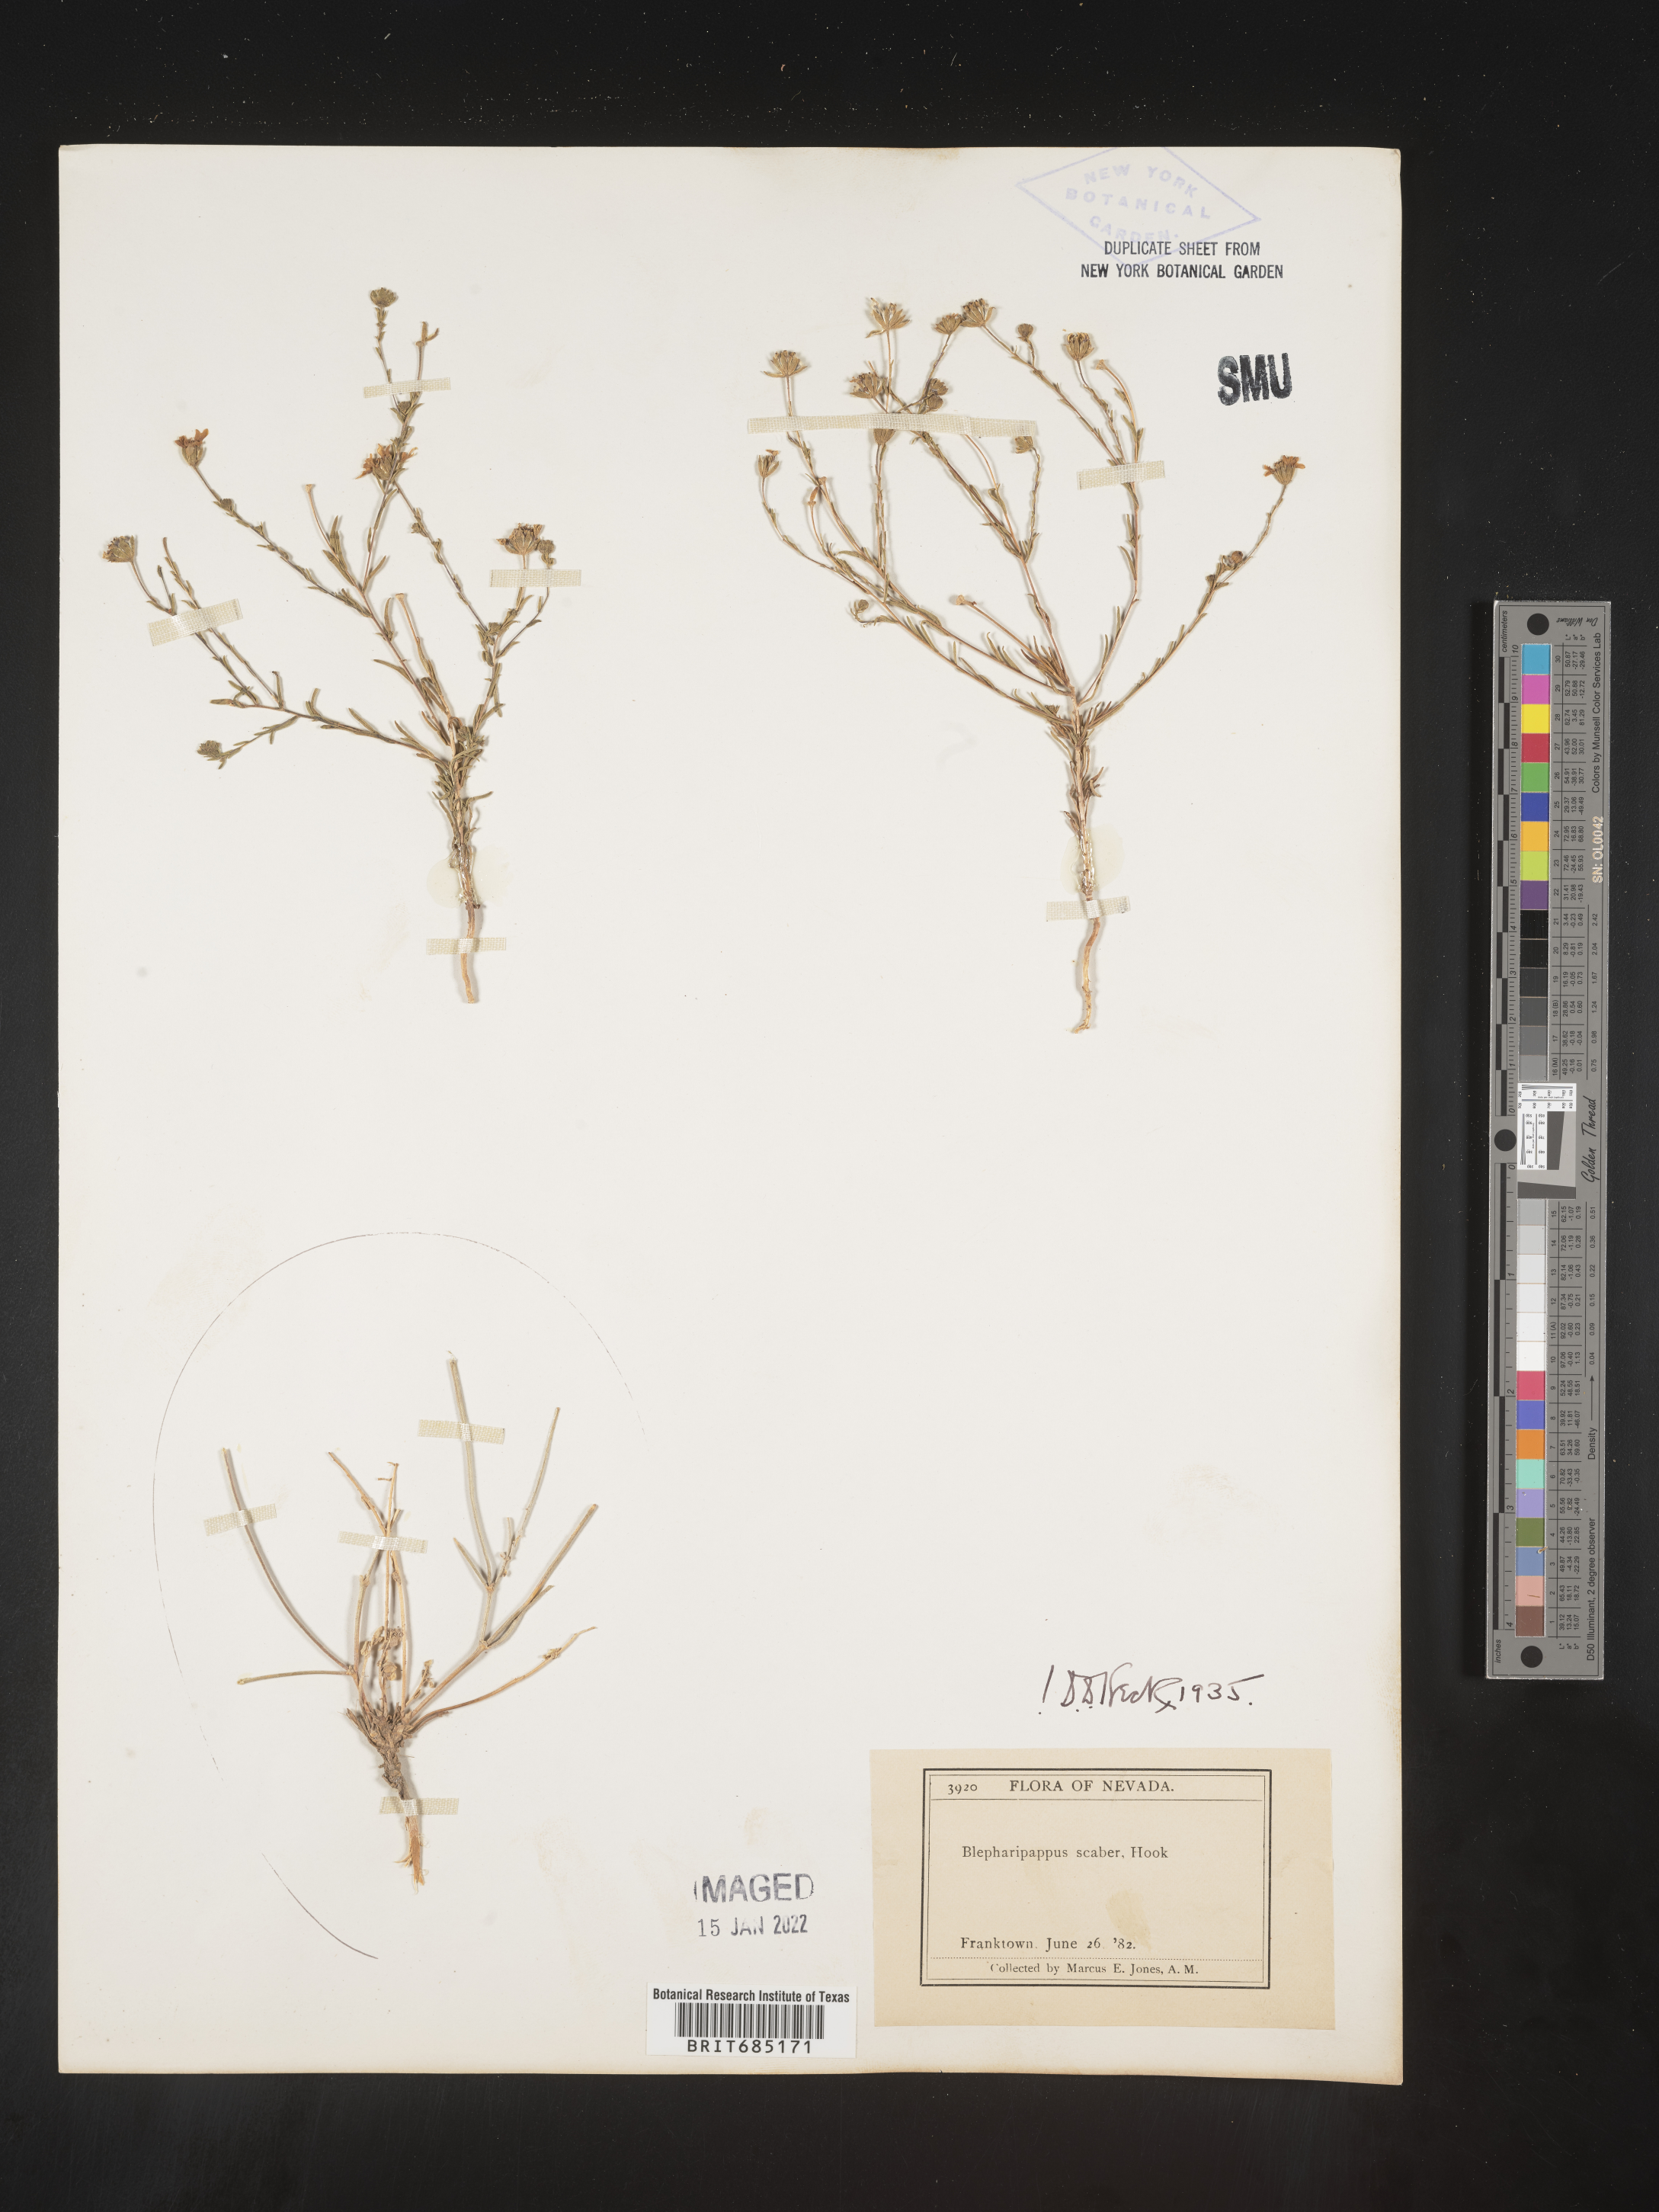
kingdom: Plantae
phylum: Tracheophyta
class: Magnoliopsida
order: Asterales
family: Asteraceae
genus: Blepharipappus
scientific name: Blepharipappus
